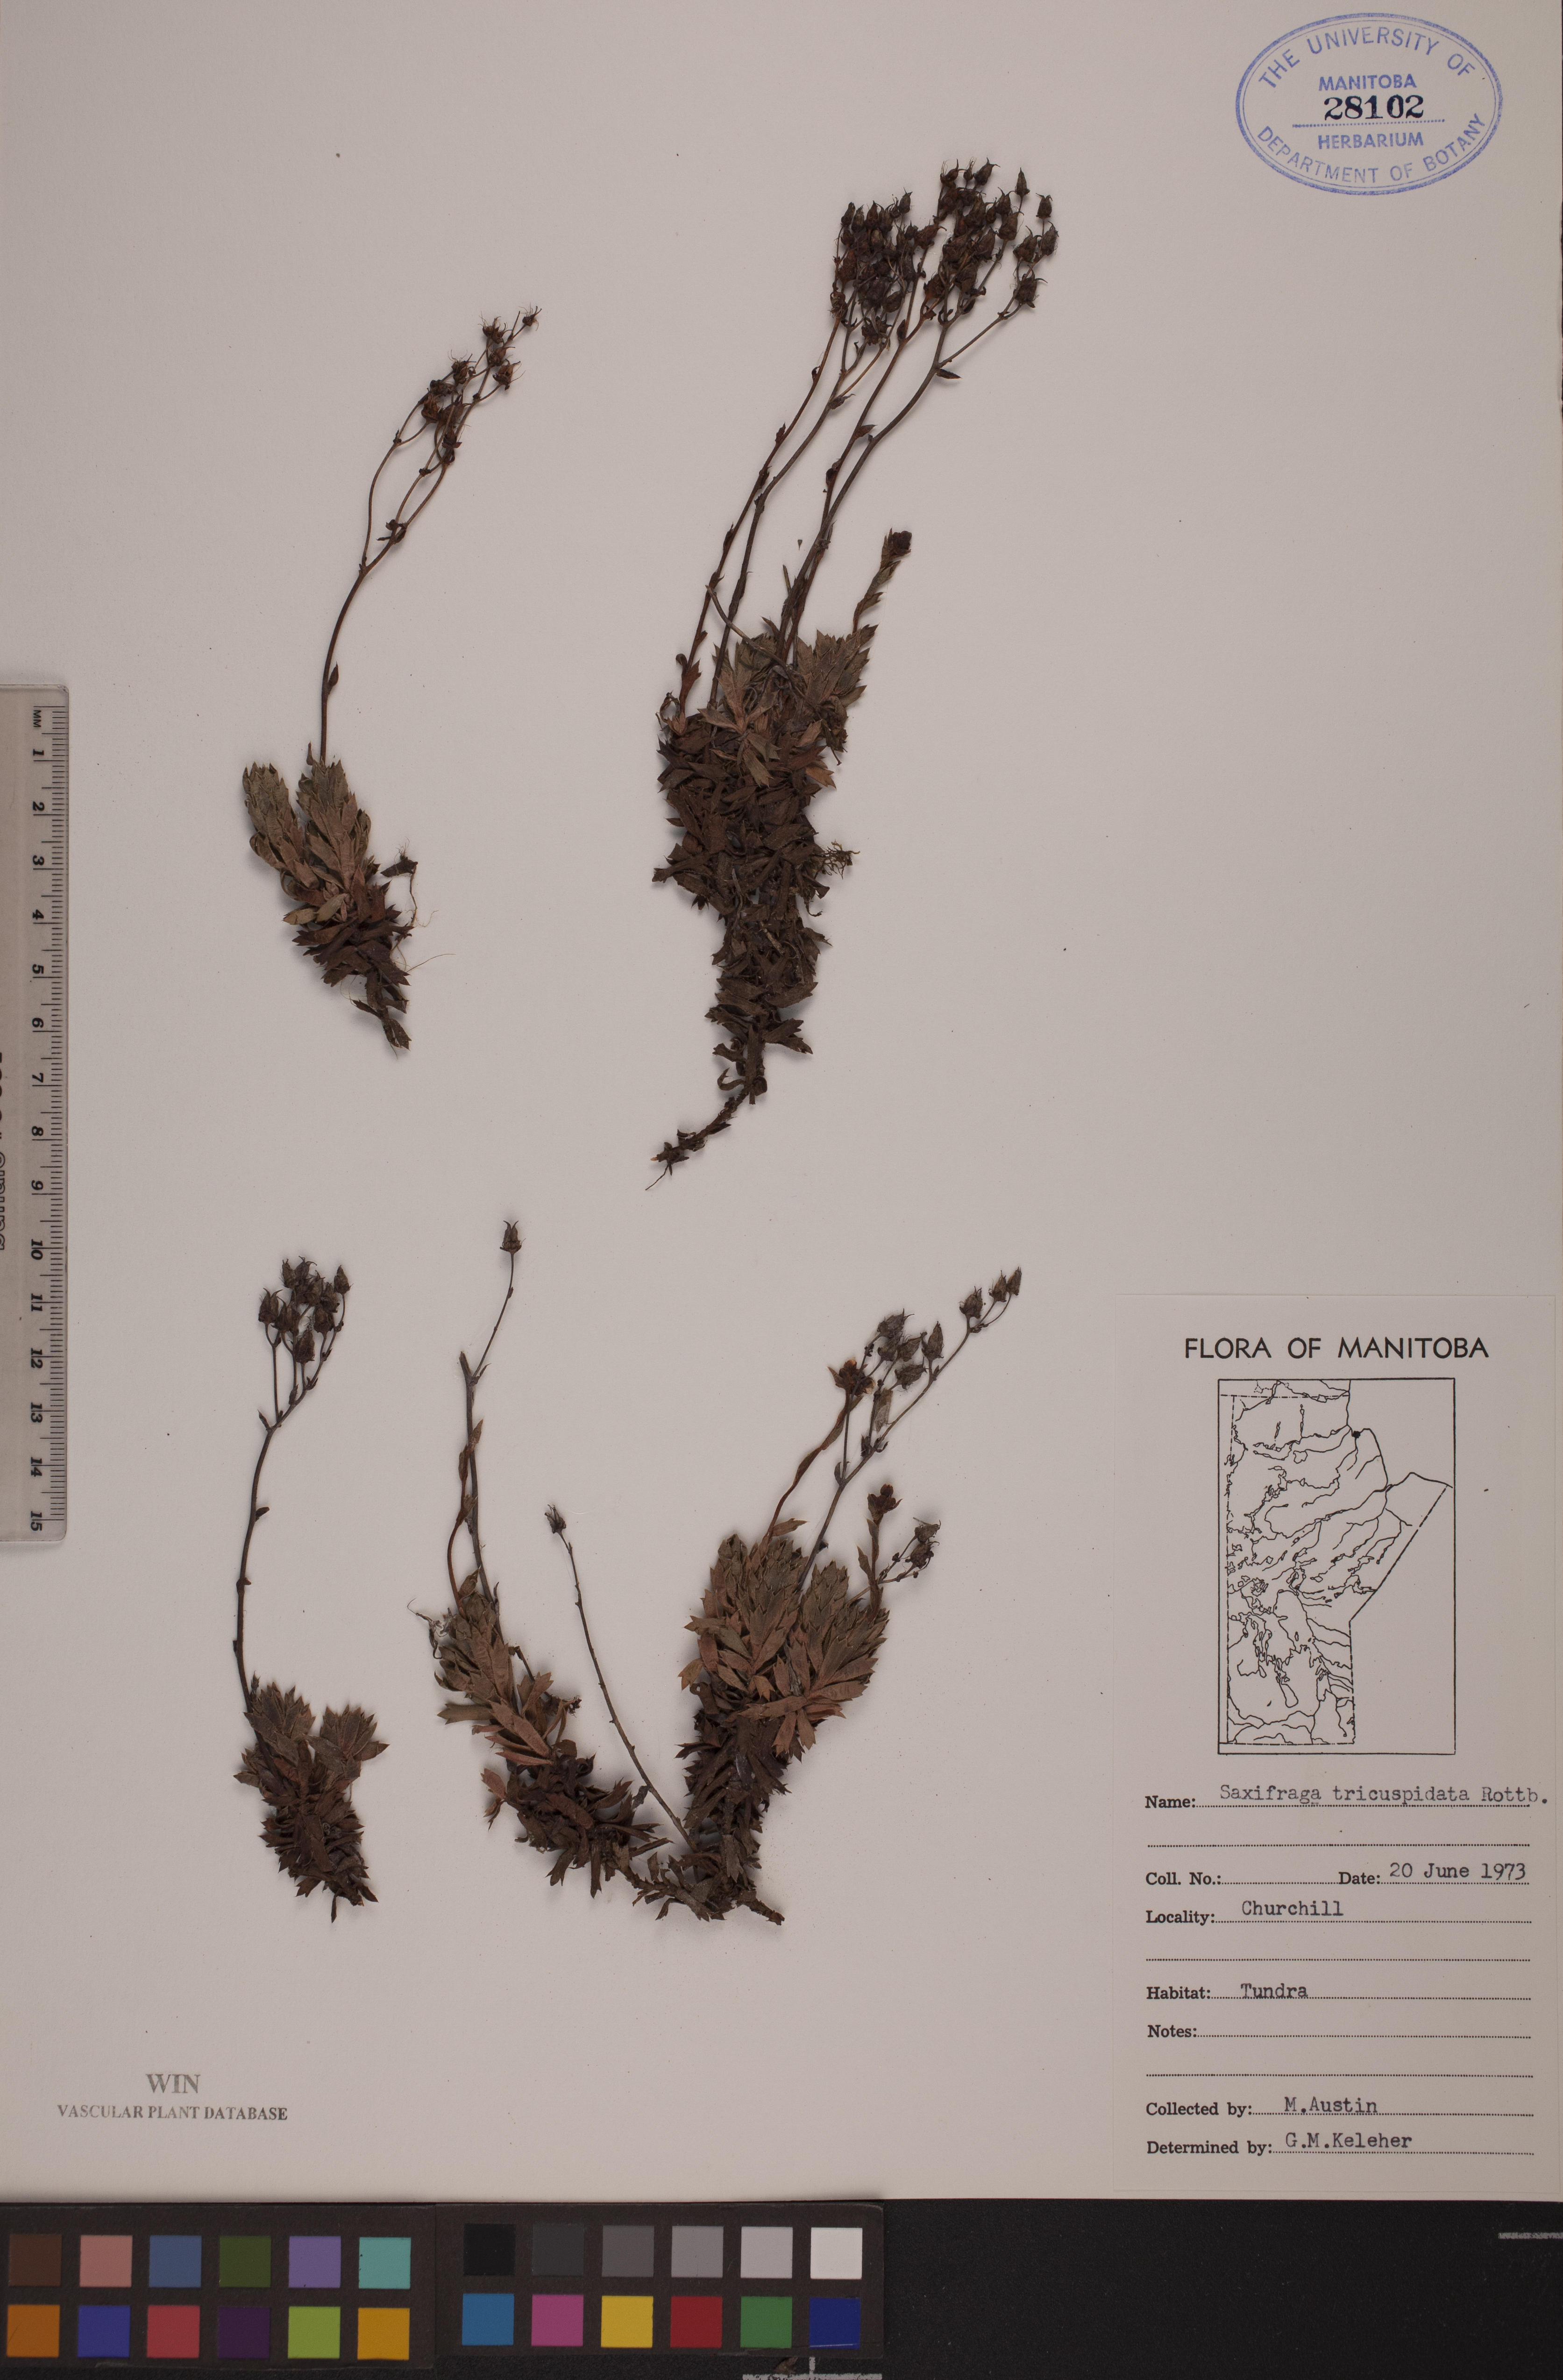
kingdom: Plantae
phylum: Tracheophyta
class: Magnoliopsida
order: Saxifragales
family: Saxifragaceae
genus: Saxifraga
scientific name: Saxifraga tricuspidata
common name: Prickly saxifrage
